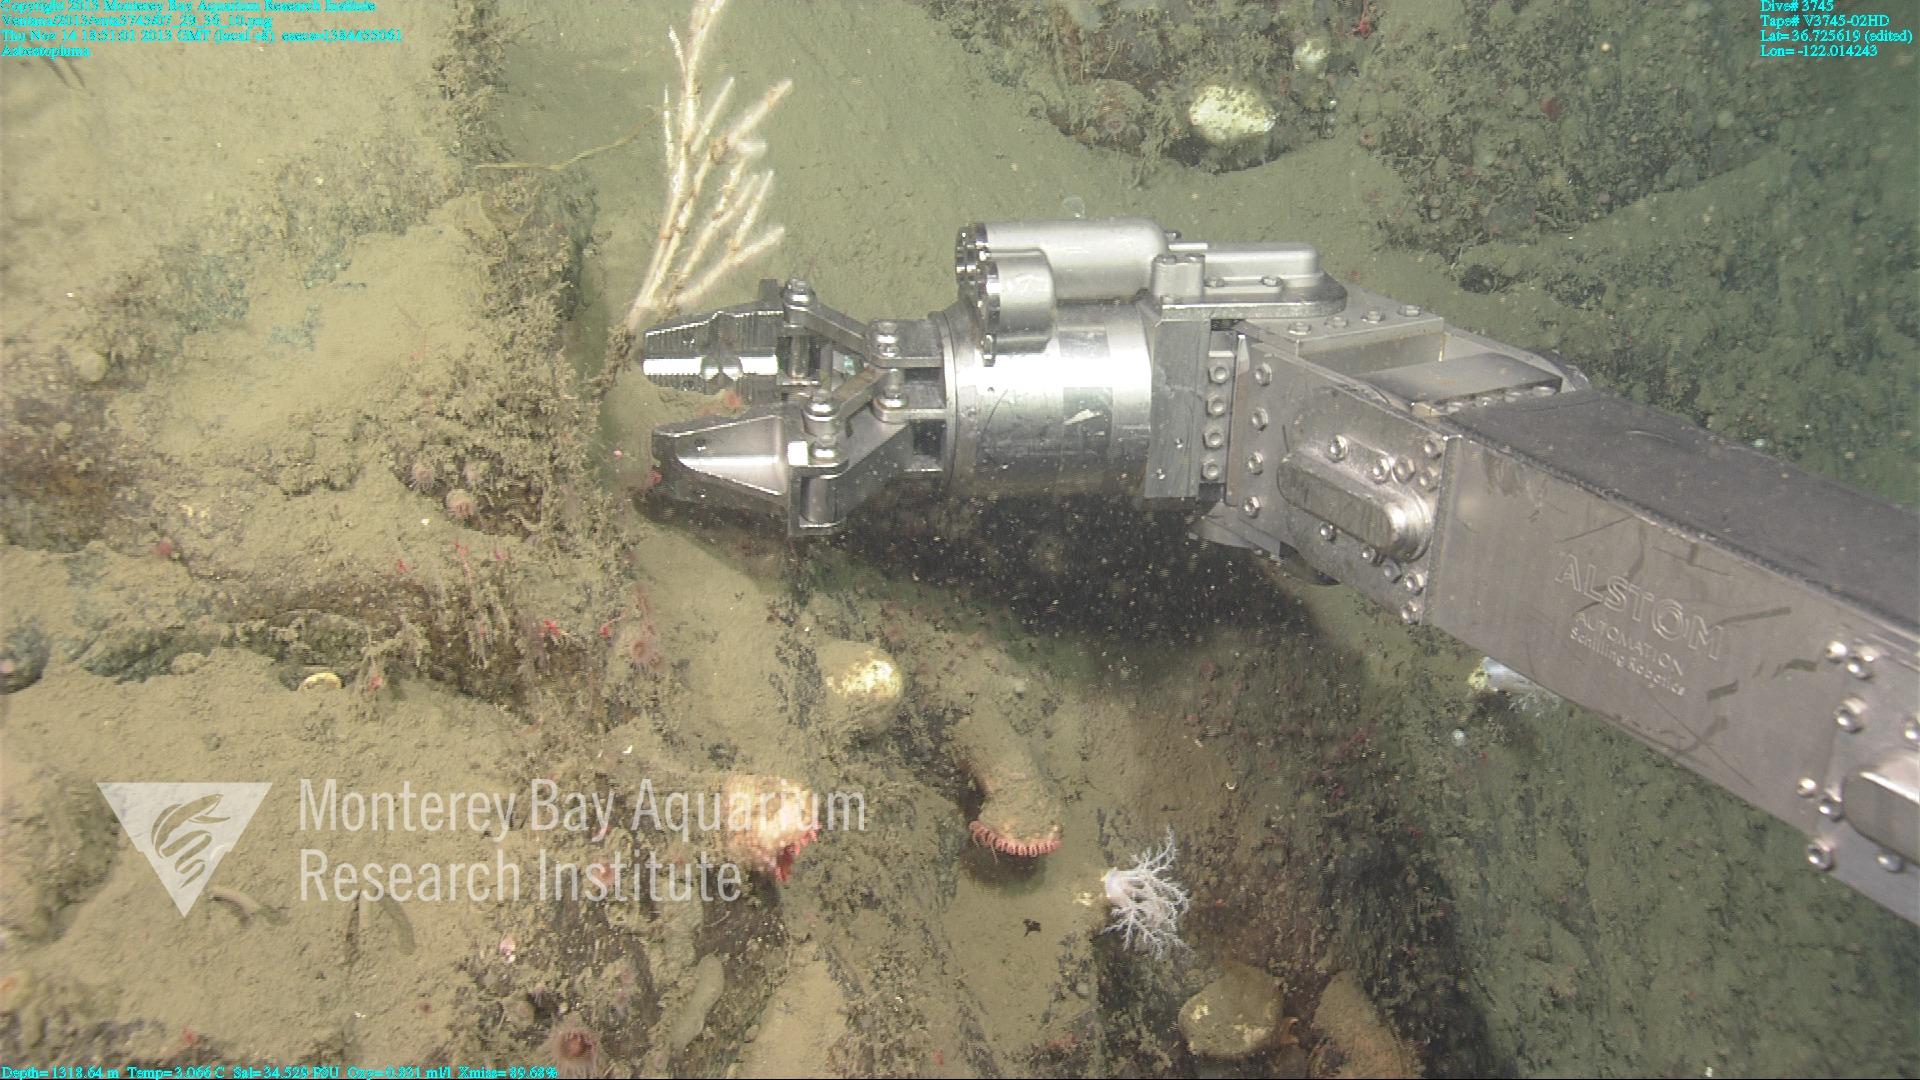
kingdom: Animalia
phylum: Porifera
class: Demospongiae
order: Poecilosclerida
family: Cladorhizidae
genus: Asbestopluma
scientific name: Asbestopluma
